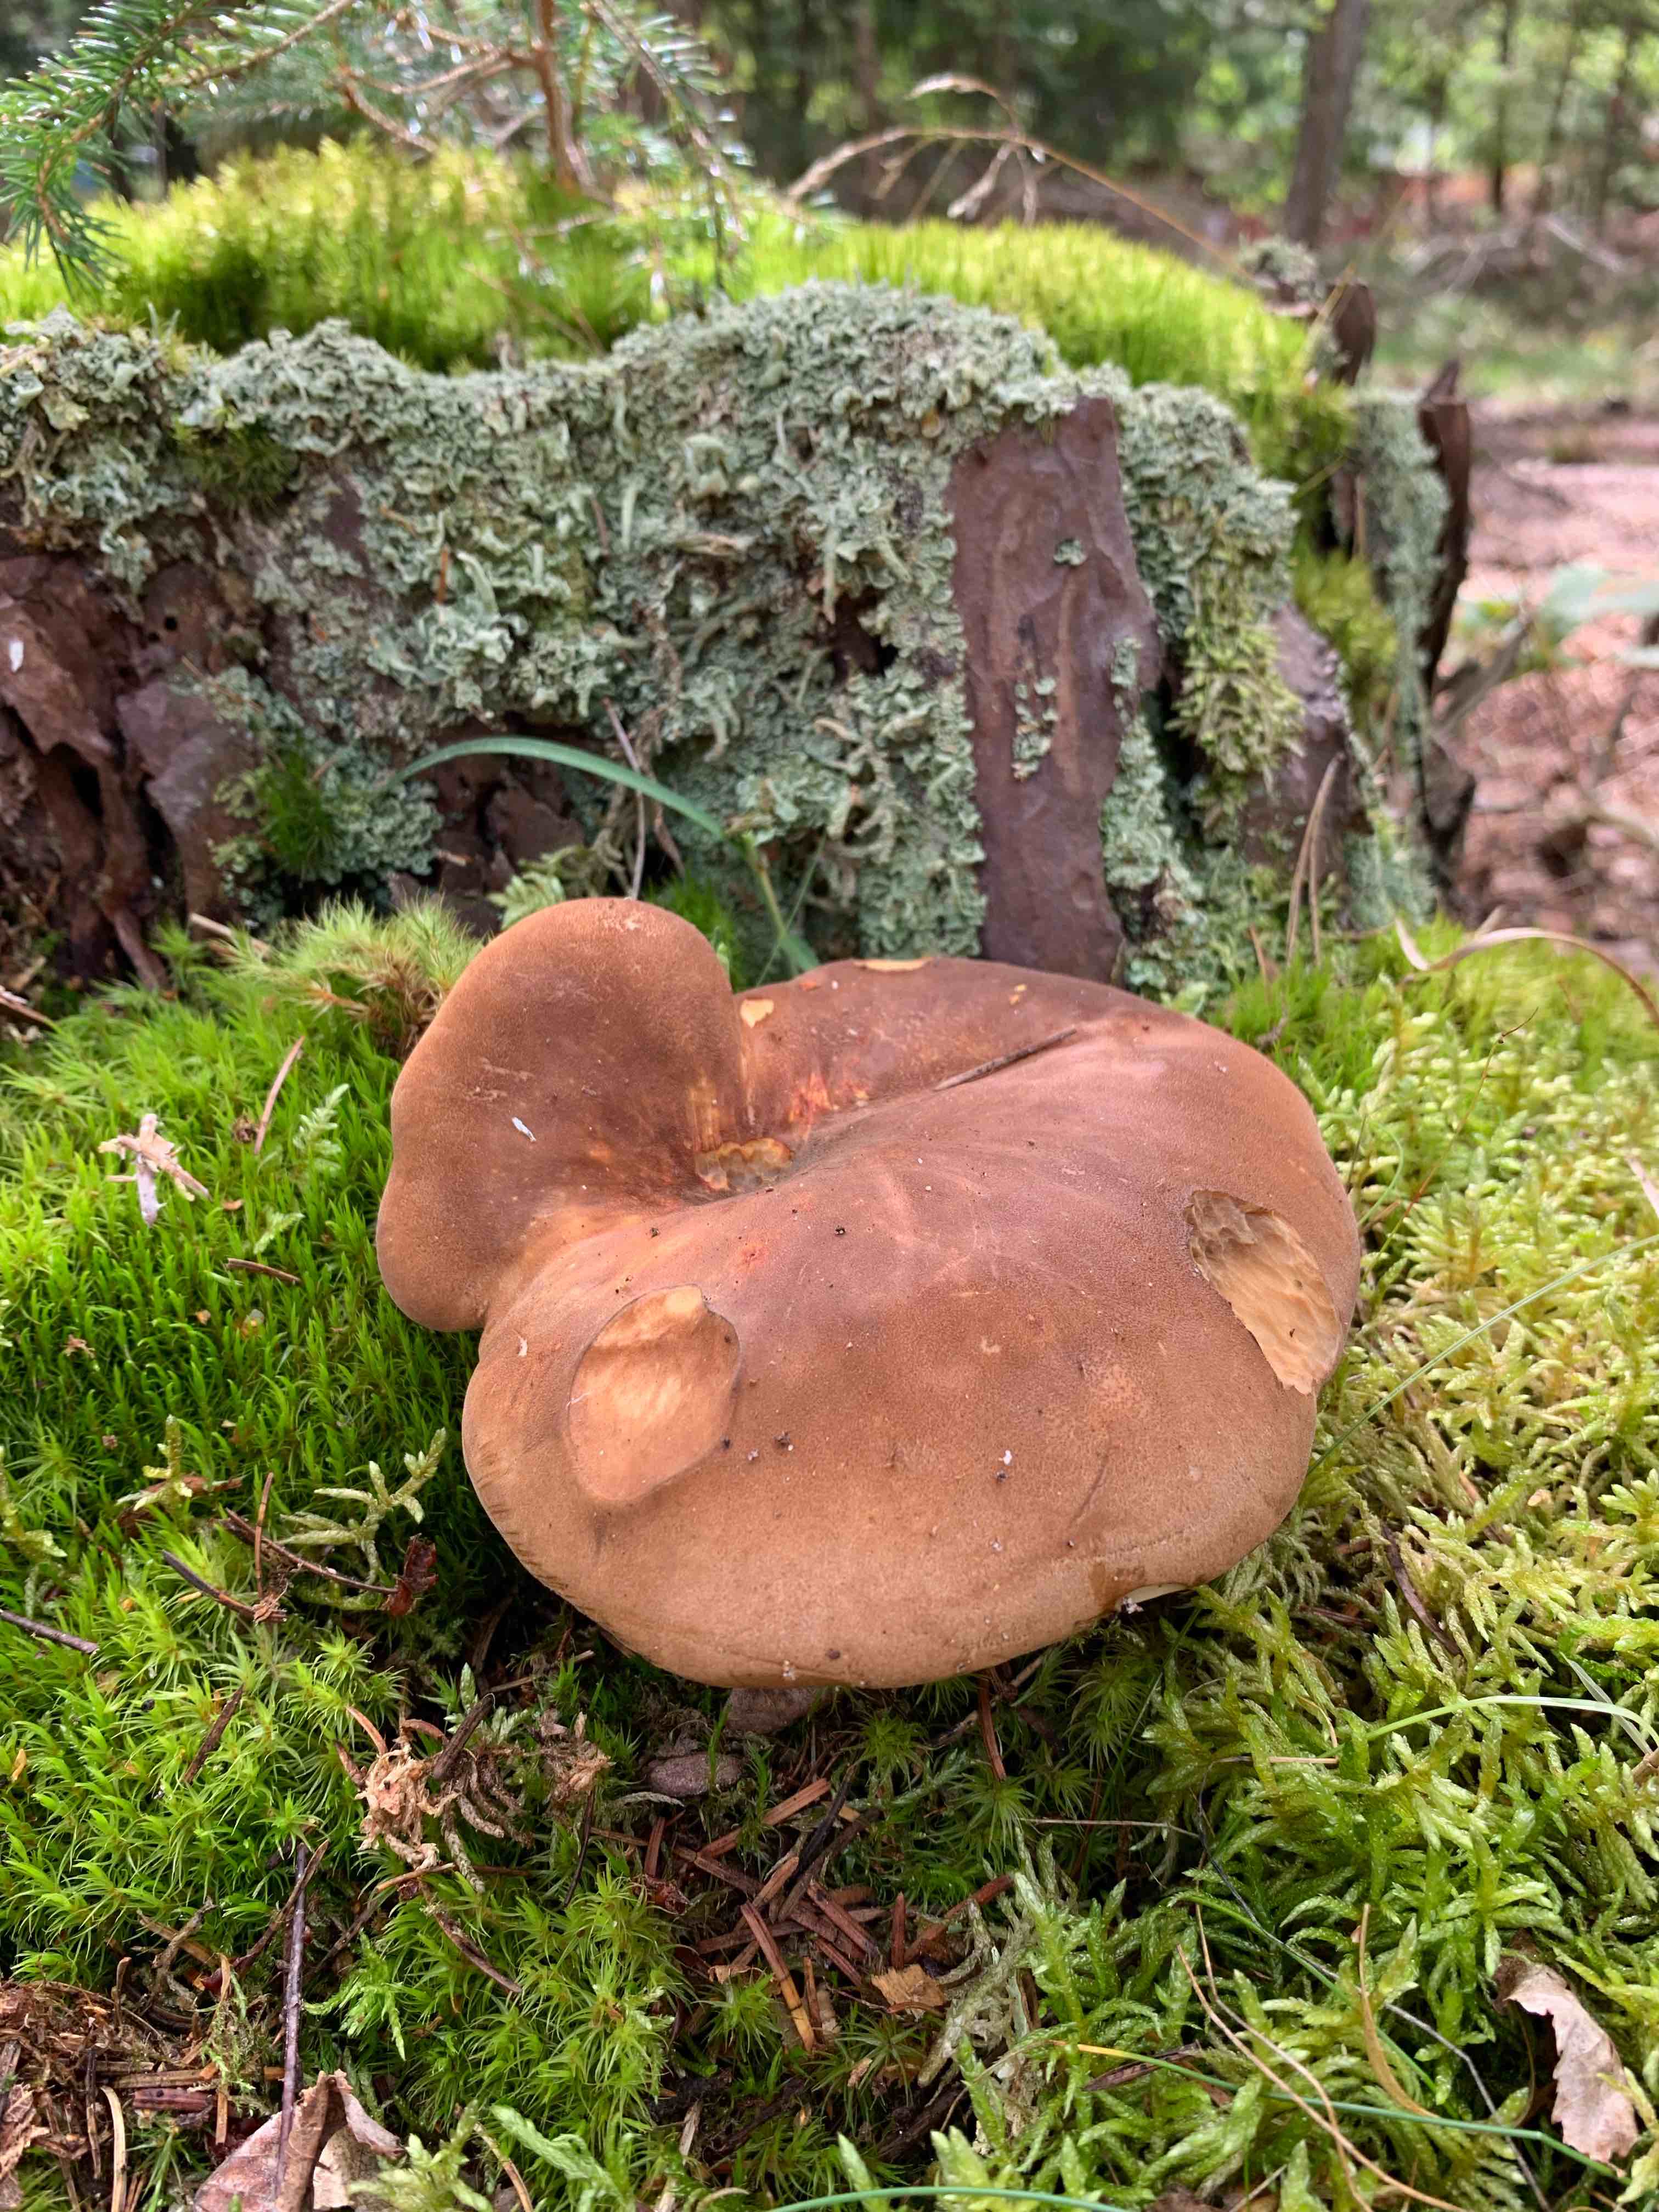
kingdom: Fungi
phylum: Basidiomycota
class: Agaricomycetes
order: Boletales
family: Tapinellaceae
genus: Tapinella
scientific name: Tapinella atrotomentosa
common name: sortfiltet viftesvamp
